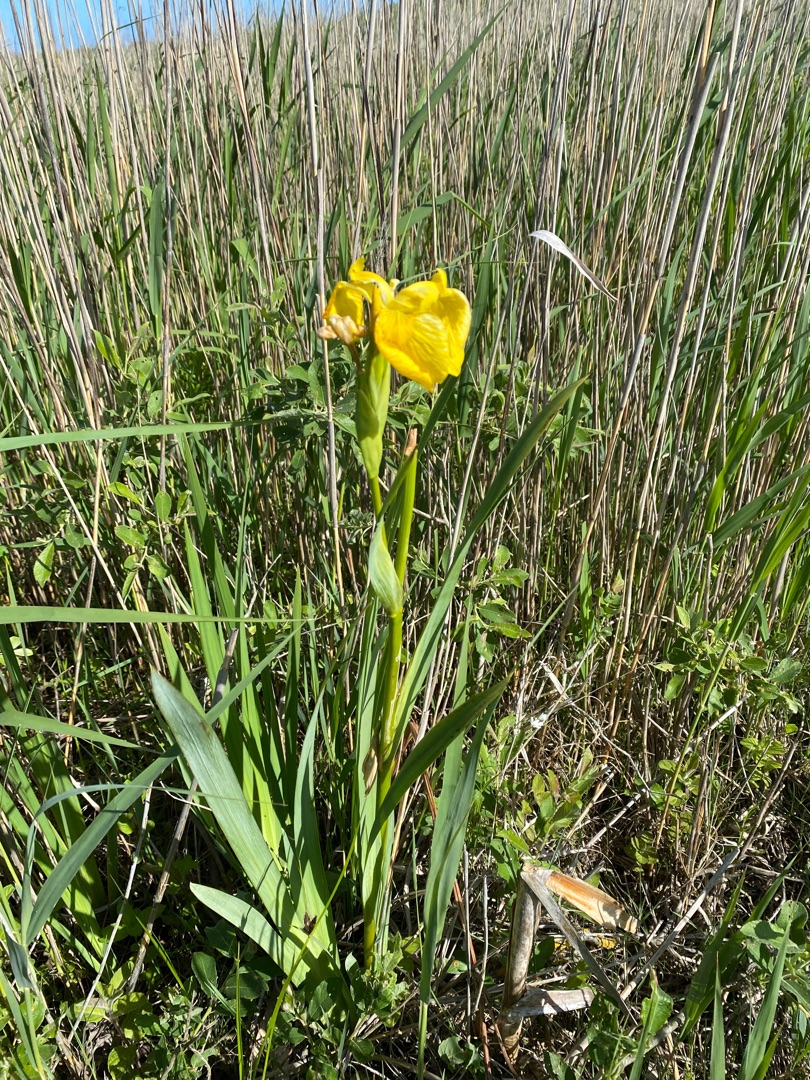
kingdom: Plantae
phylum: Tracheophyta
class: Liliopsida
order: Asparagales
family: Iridaceae
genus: Iris
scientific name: Iris pseudacorus
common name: Gul iris
